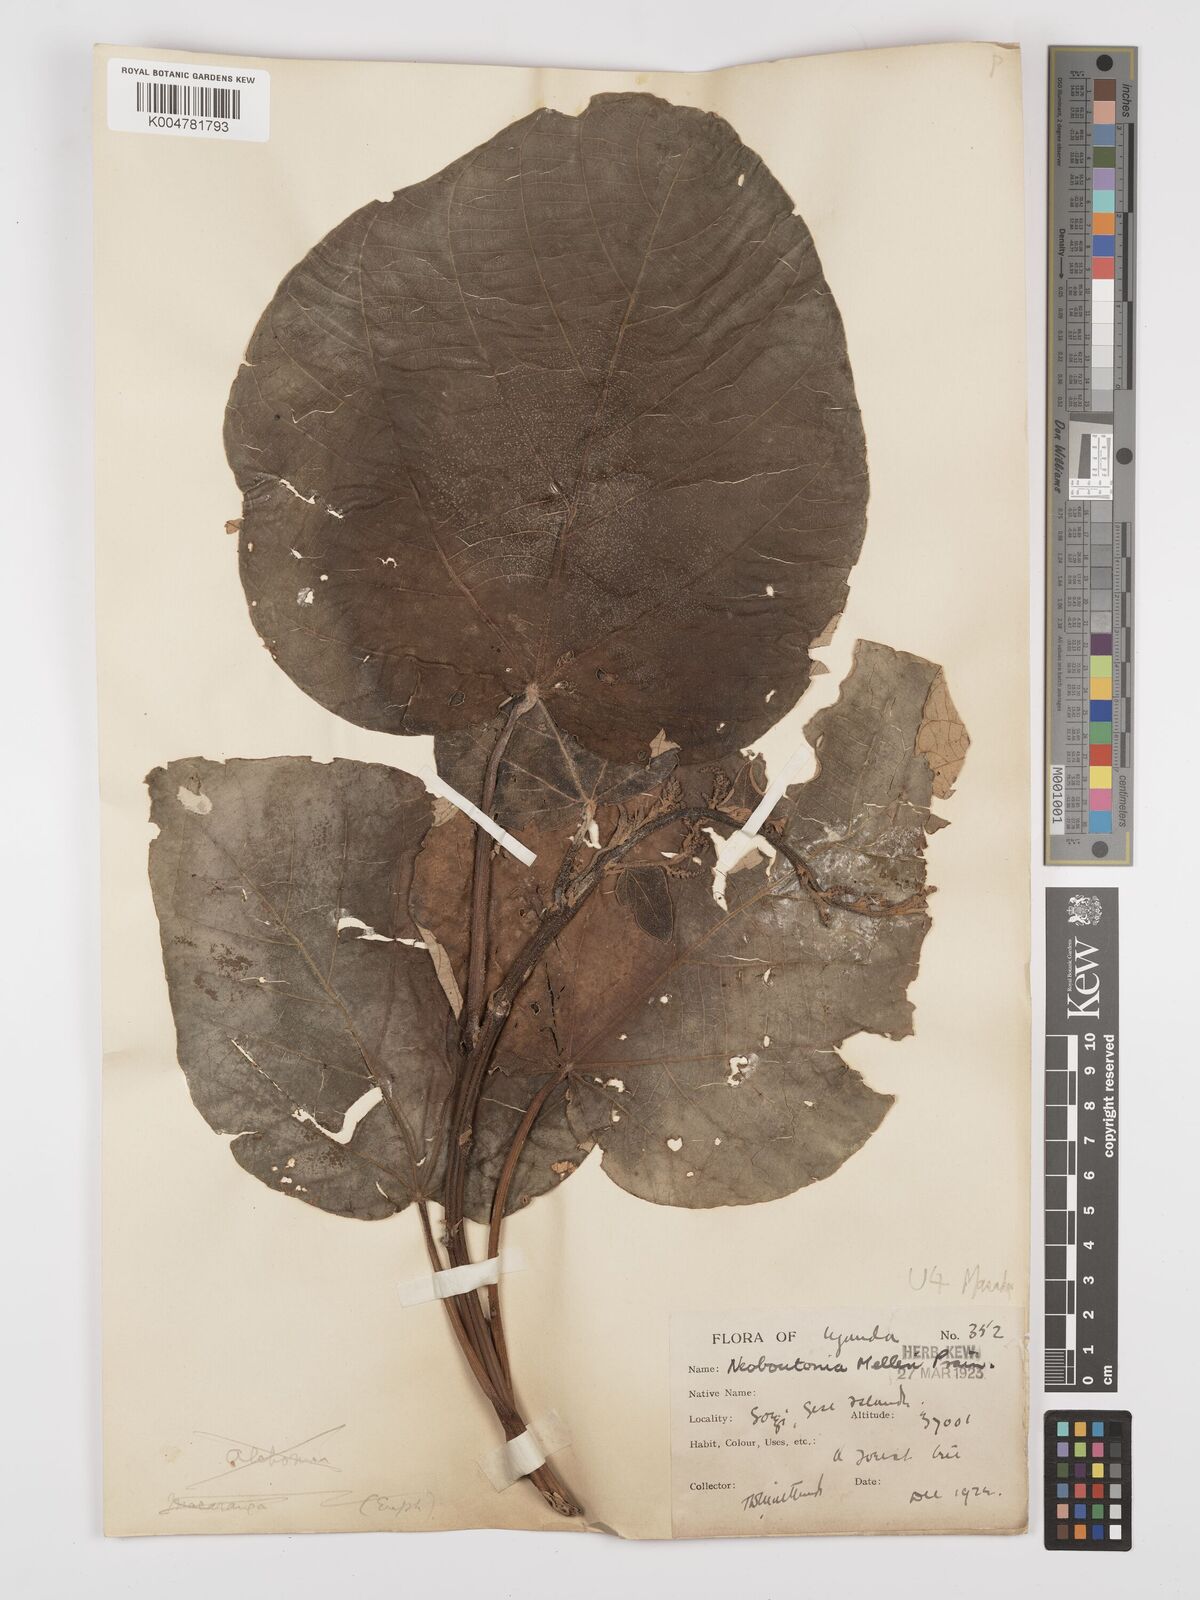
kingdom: Plantae
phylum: Tracheophyta
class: Magnoliopsida
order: Malpighiales
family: Euphorbiaceae
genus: Neoboutonia
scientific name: Neoboutonia melleri
